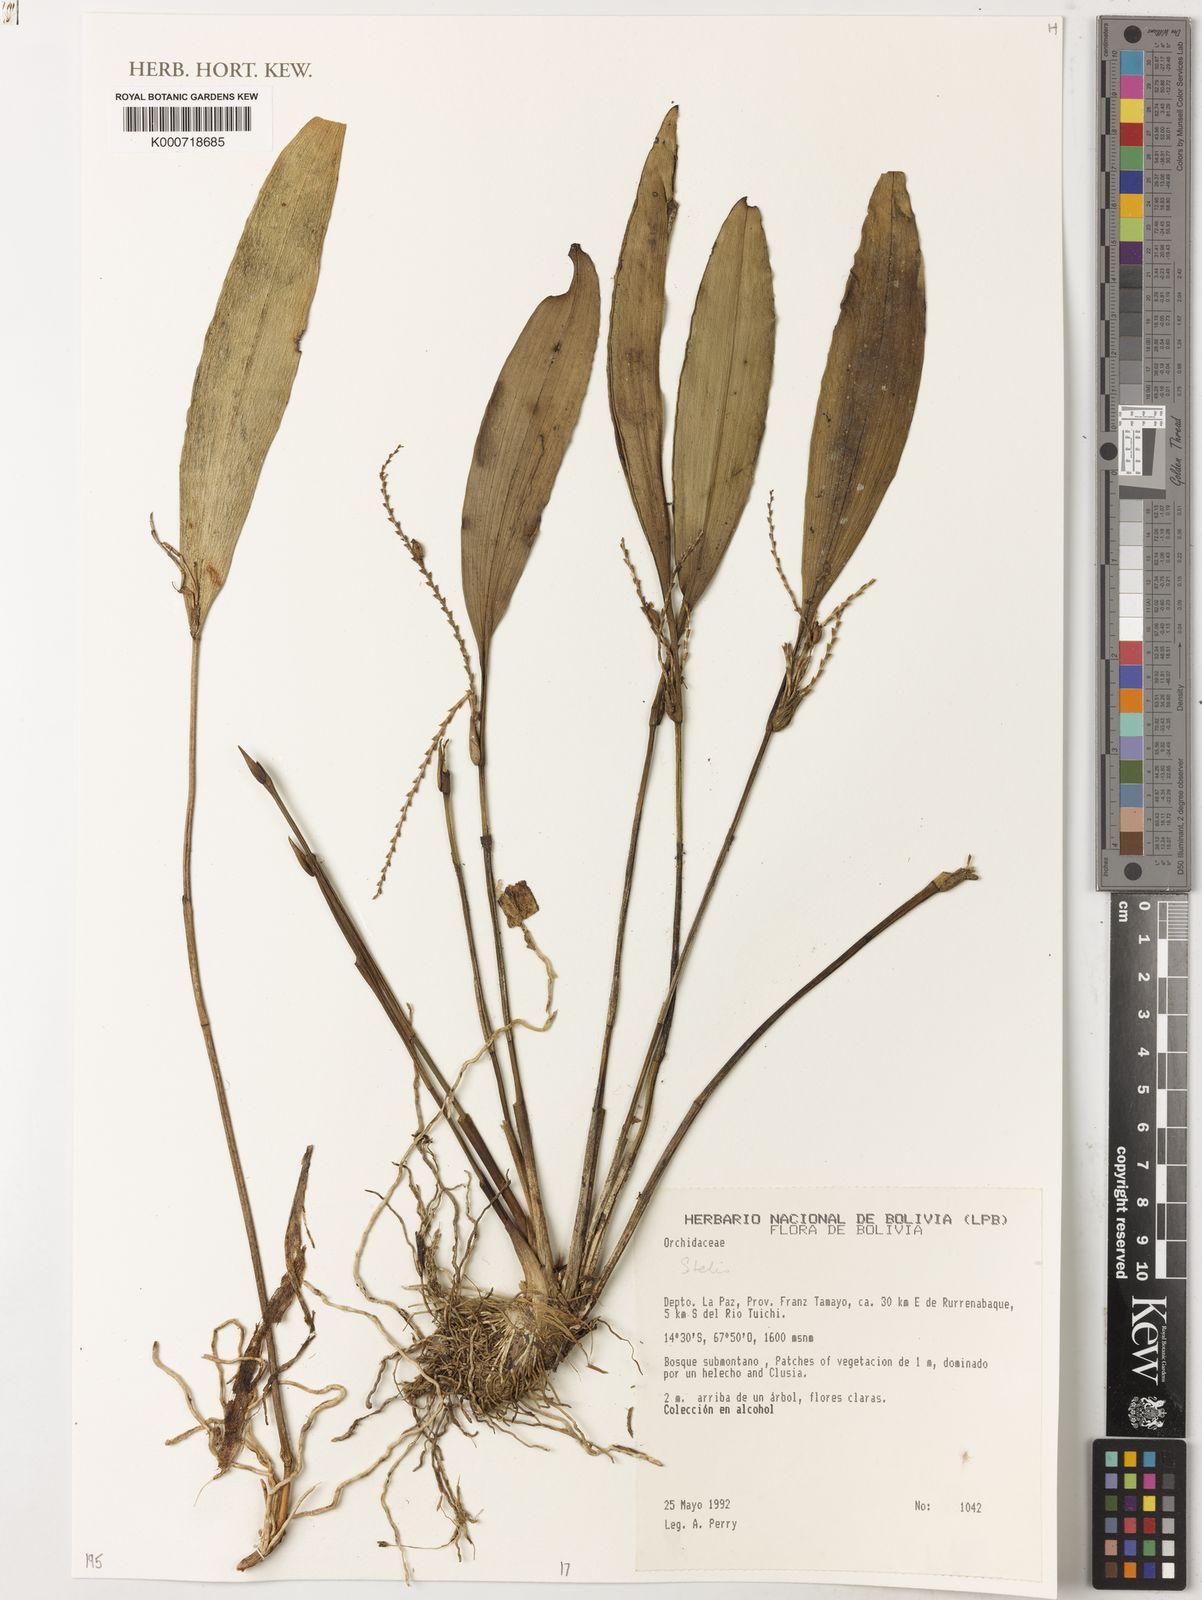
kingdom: Plantae
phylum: Tracheophyta
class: Liliopsida
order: Asparagales
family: Orchidaceae
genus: Stelis
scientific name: Stelis
